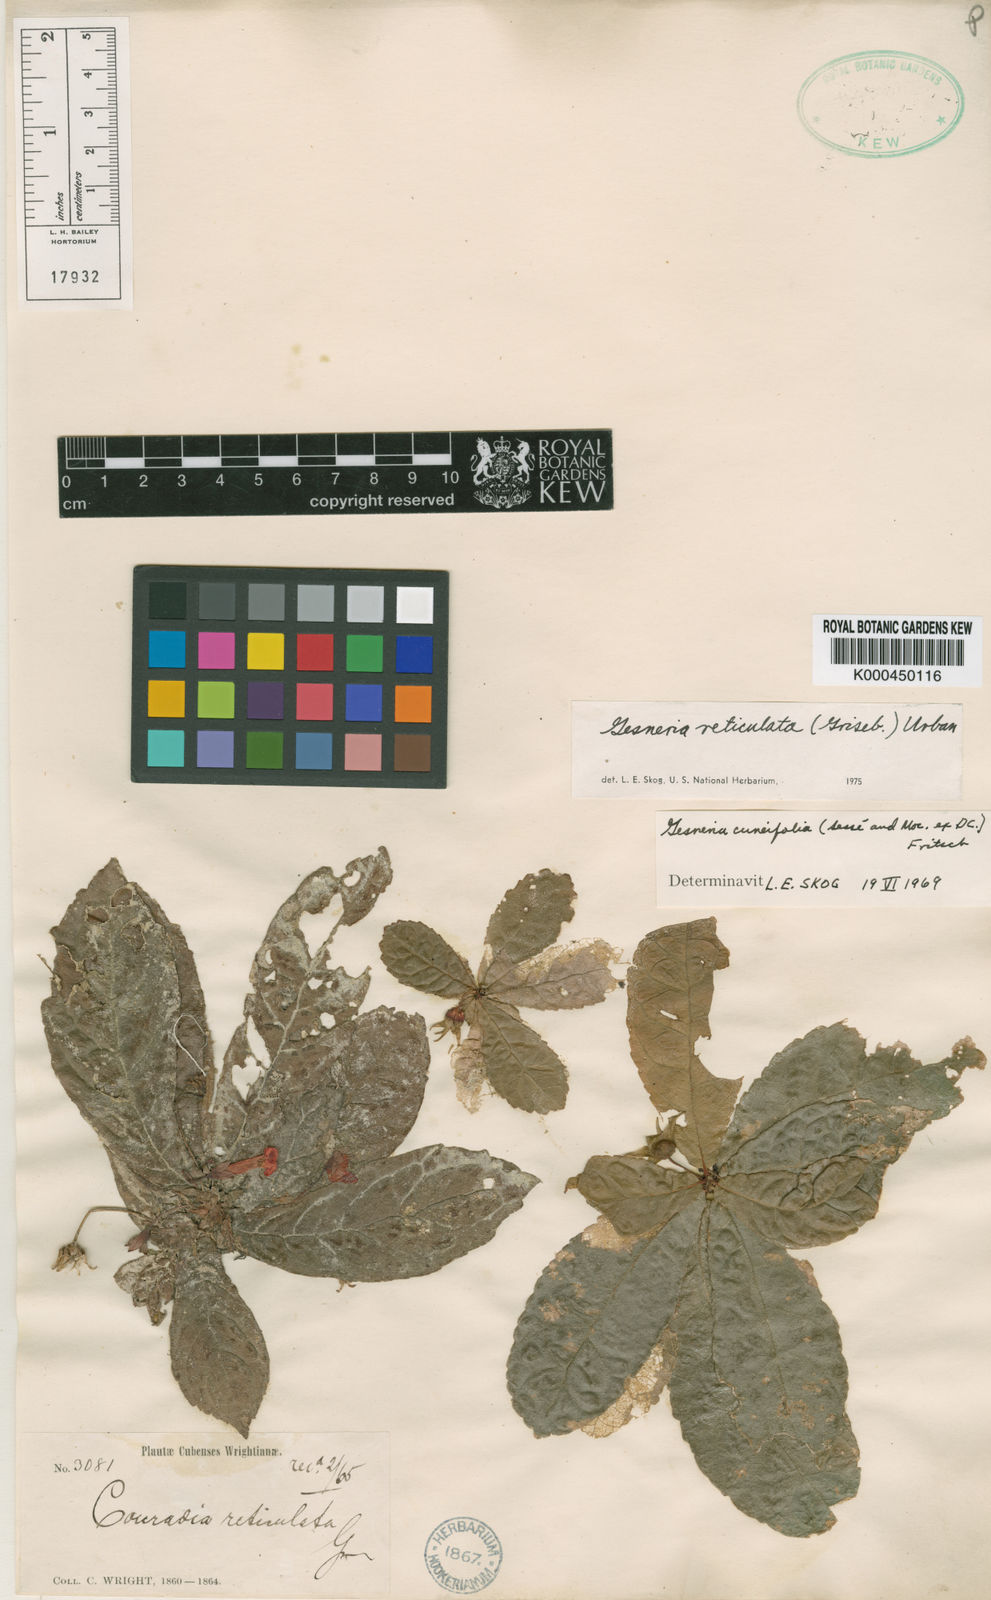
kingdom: Plantae
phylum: Tracheophyta
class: Magnoliopsida
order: Lamiales
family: Gesneriaceae
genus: Gesneria
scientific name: Gesneria reticulata
